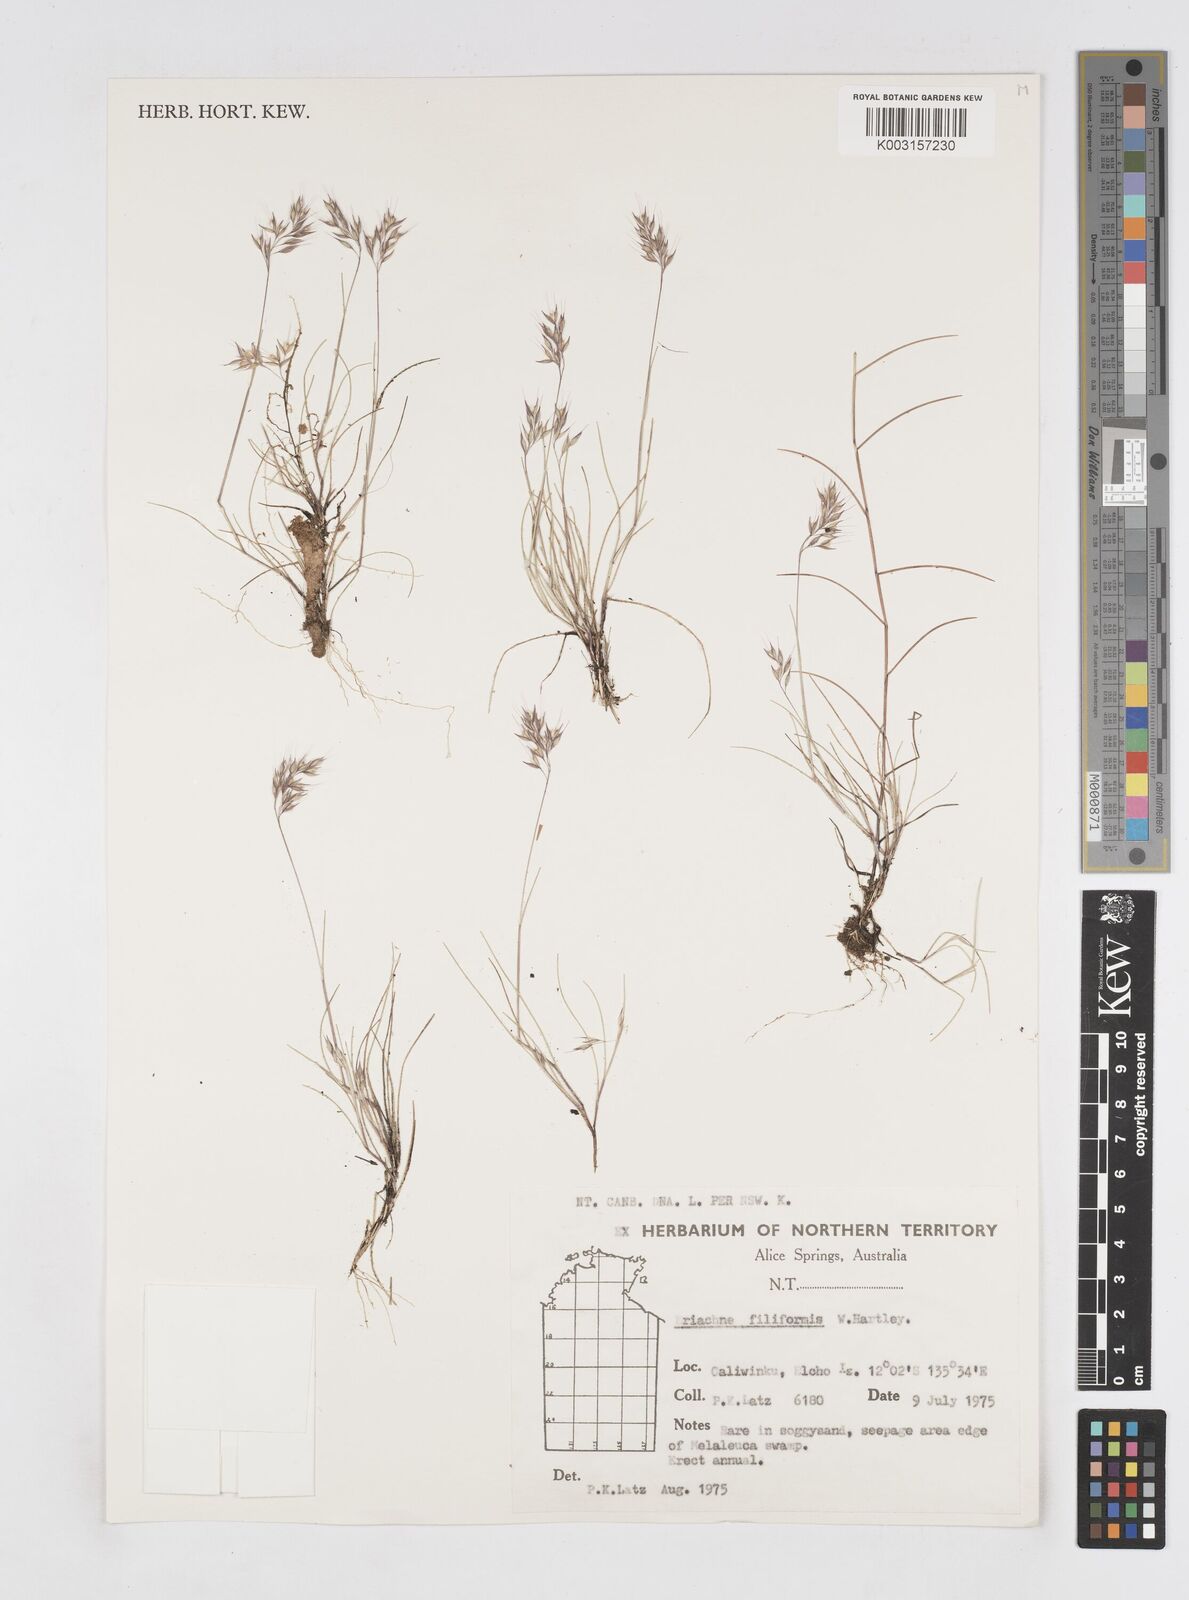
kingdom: Plantae
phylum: Tracheophyta
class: Liliopsida
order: Poales
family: Poaceae
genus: Eriachne
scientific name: Eriachne filiformis
